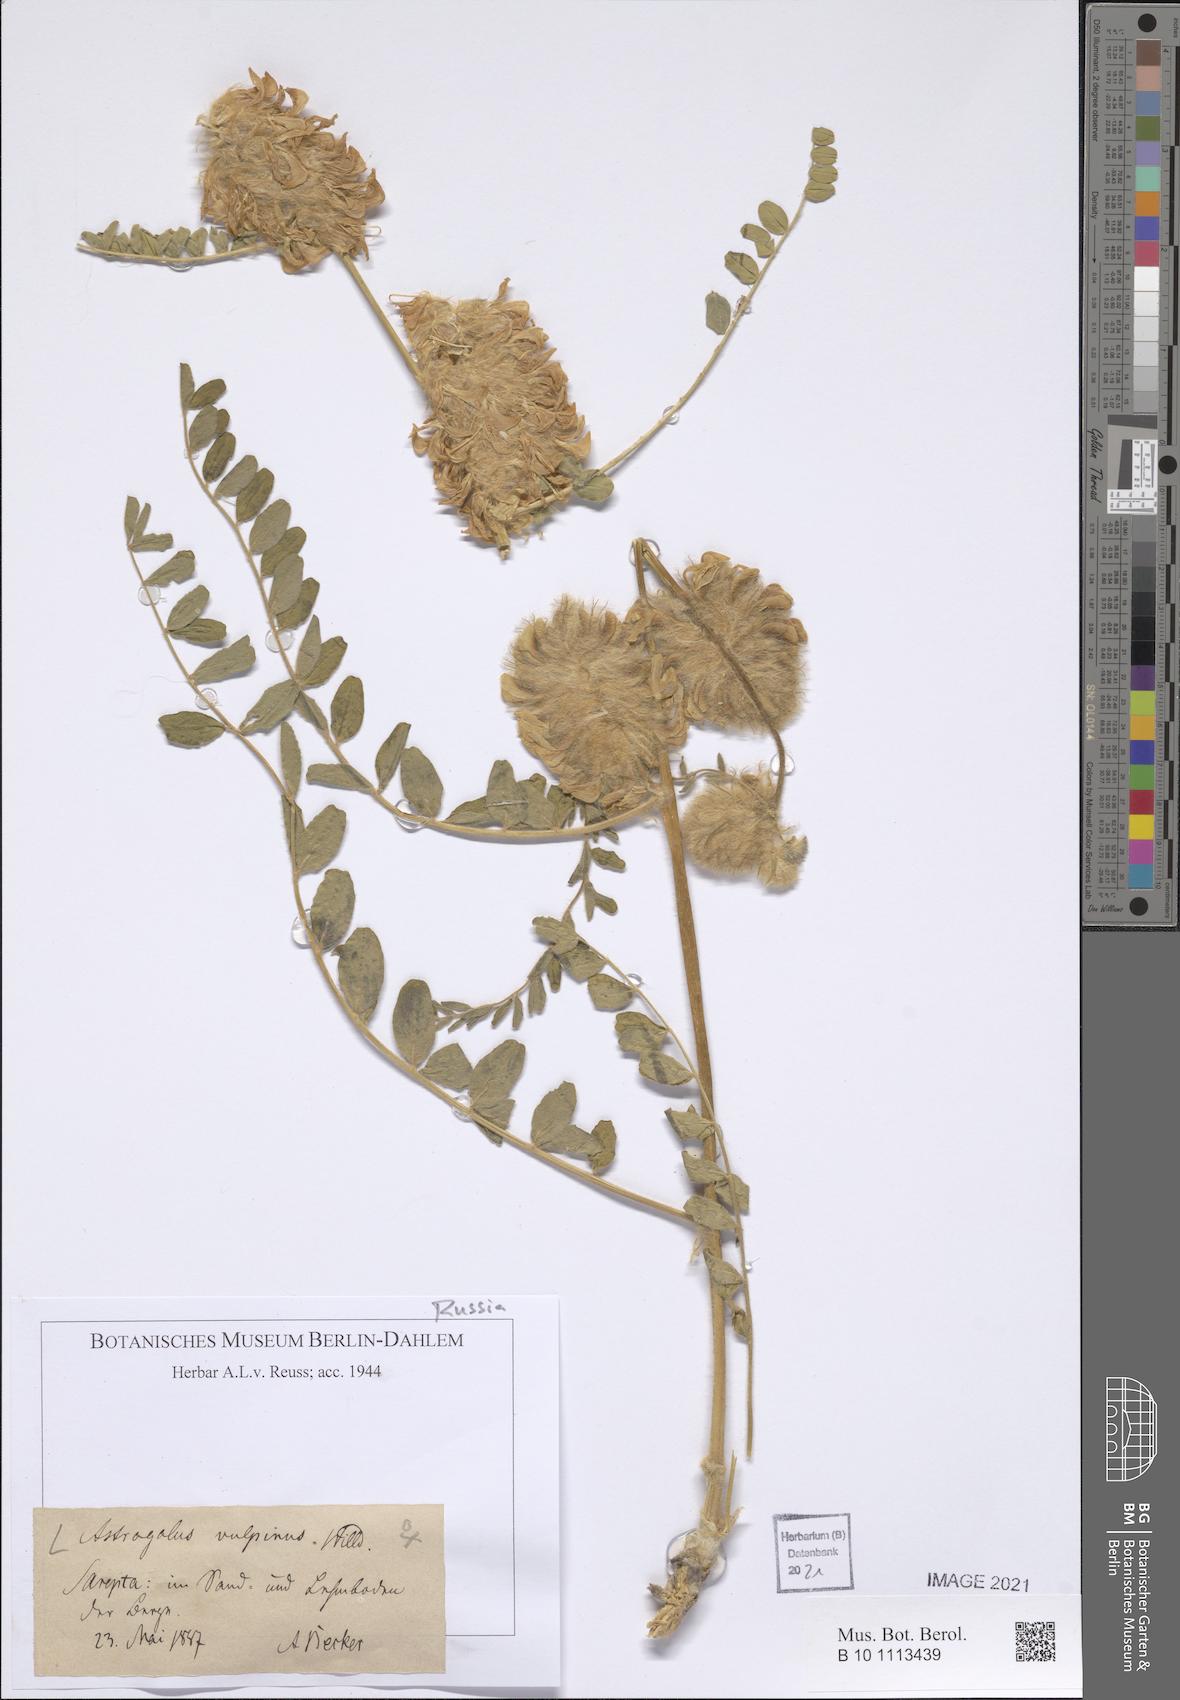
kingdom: Plantae
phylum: Tracheophyta
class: Magnoliopsida
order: Fabales
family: Fabaceae
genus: Astragalus
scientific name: Astragalus vulpinus
